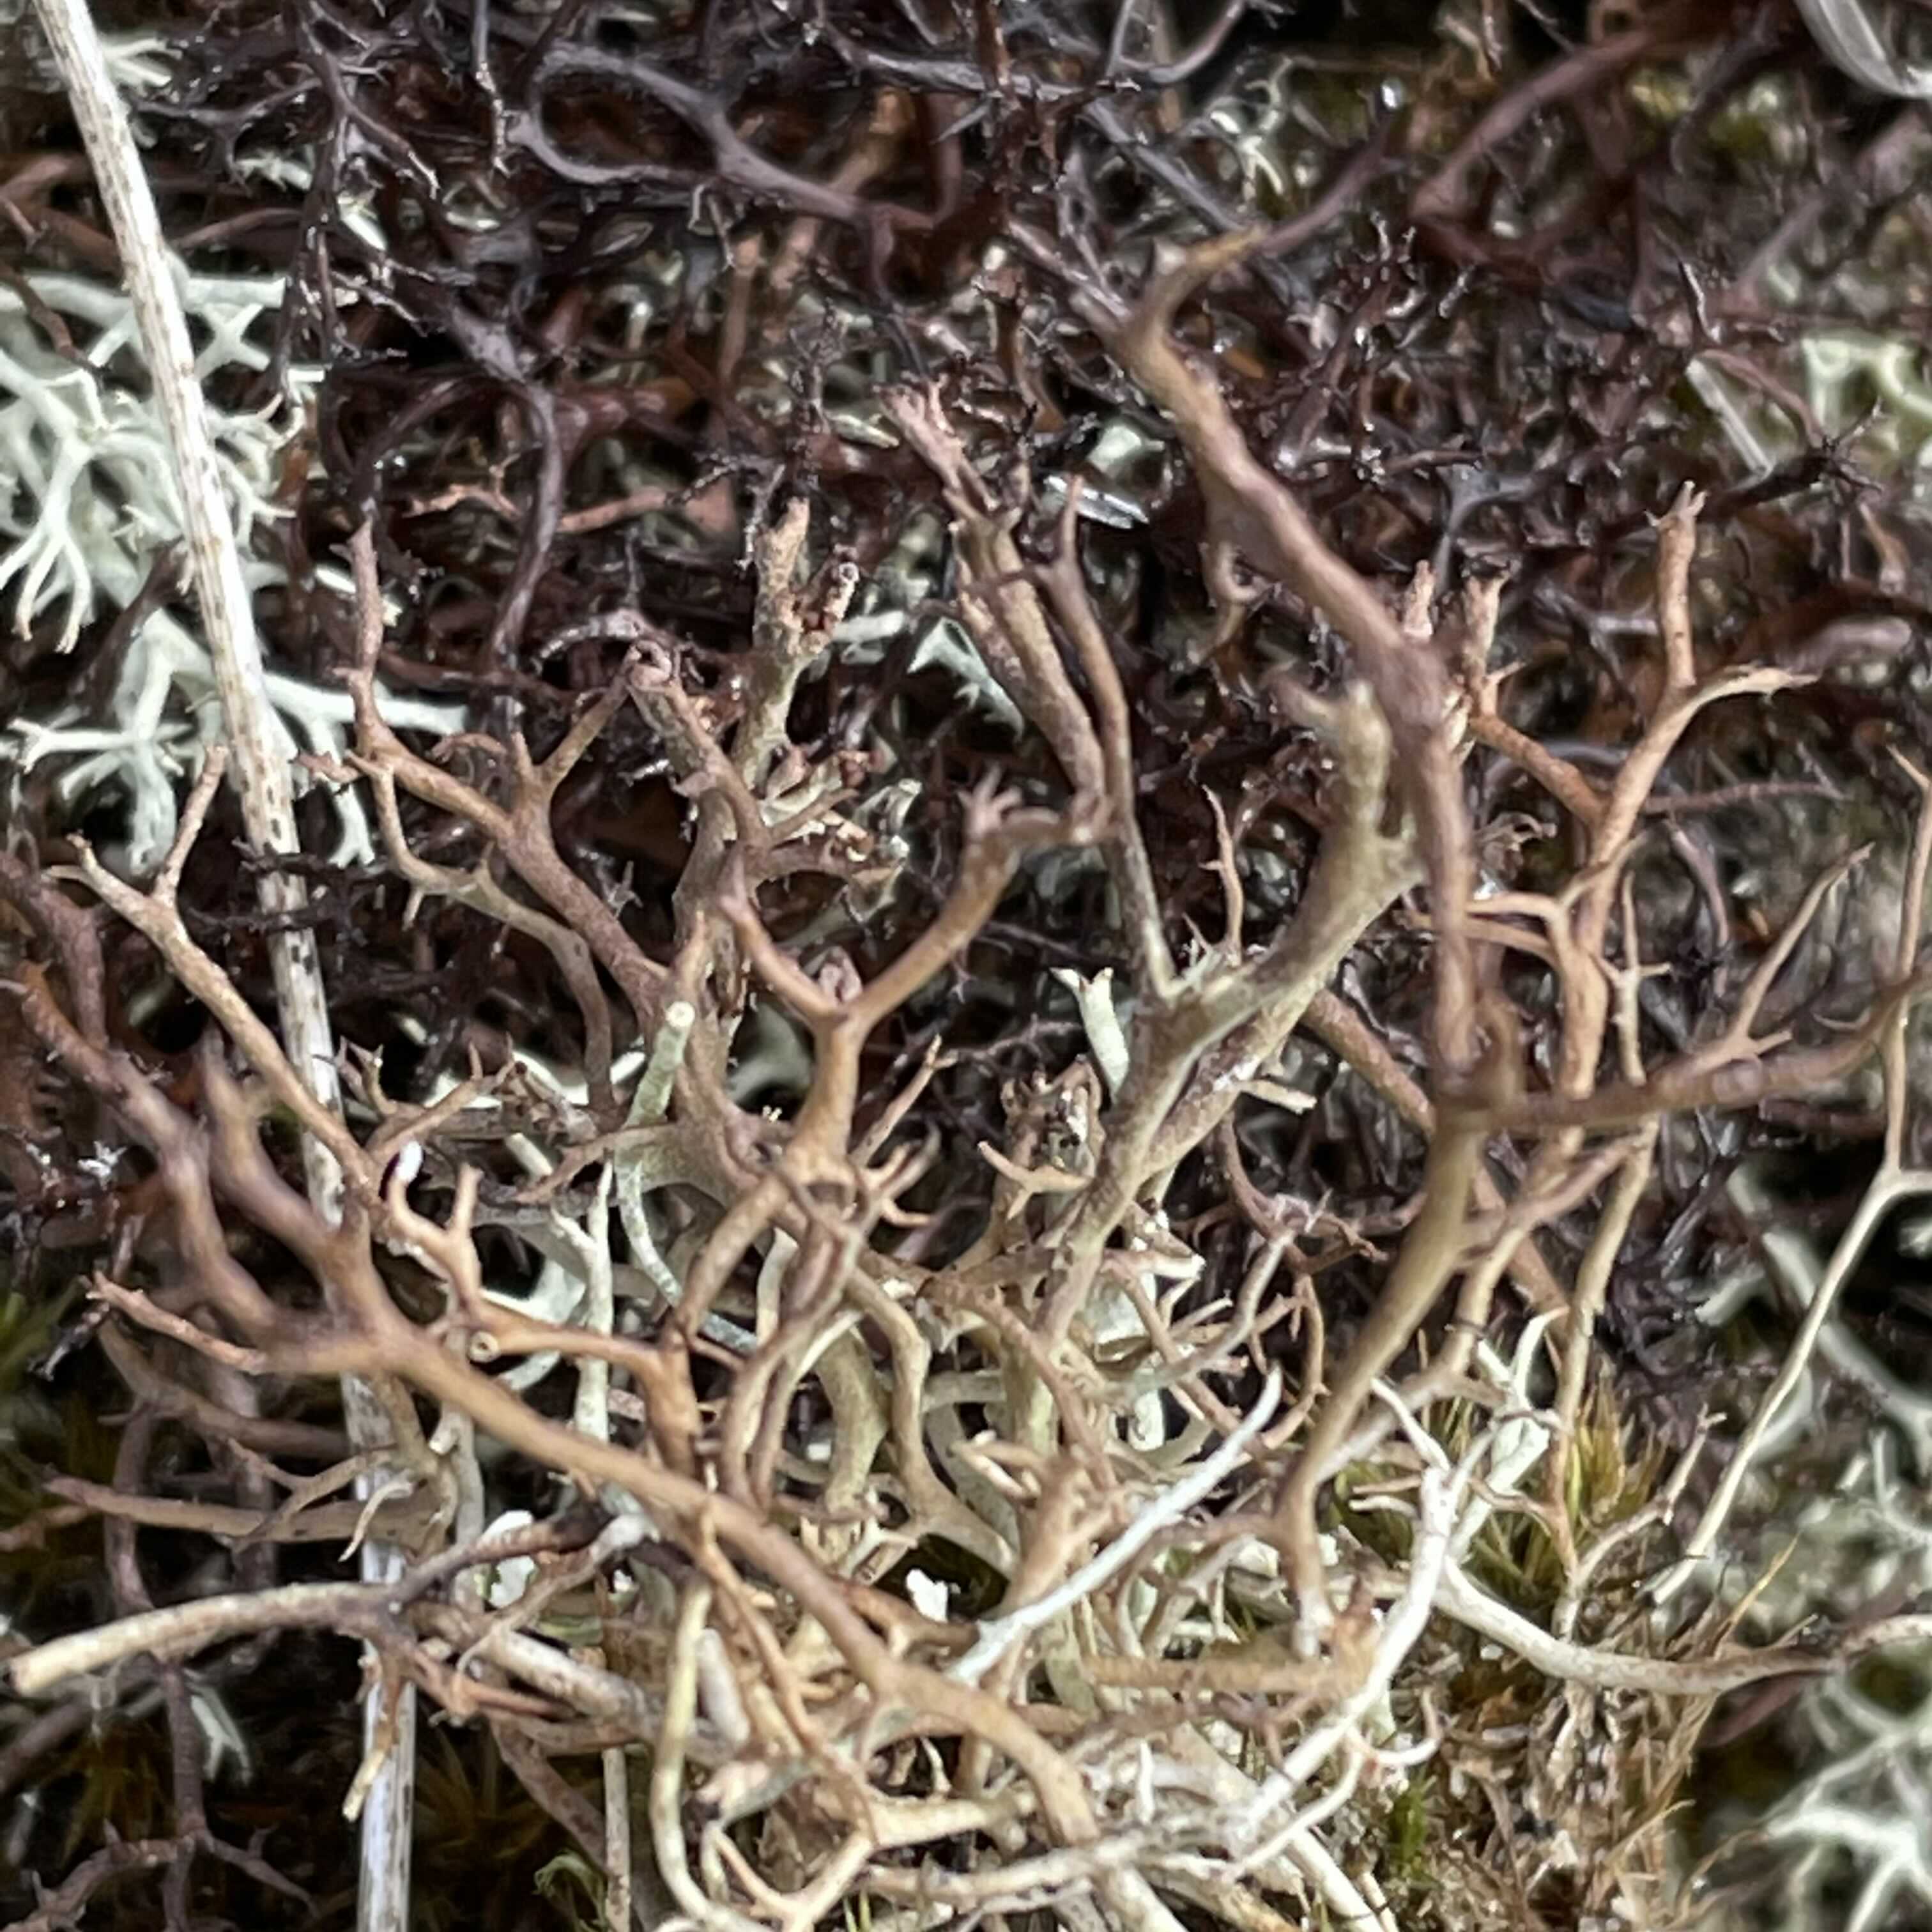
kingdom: Fungi
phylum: Ascomycota
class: Lecanoromycetes
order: Lecanorales
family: Cladoniaceae
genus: Cladonia
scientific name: Cladonia furcata
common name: kløftet bægerlav
